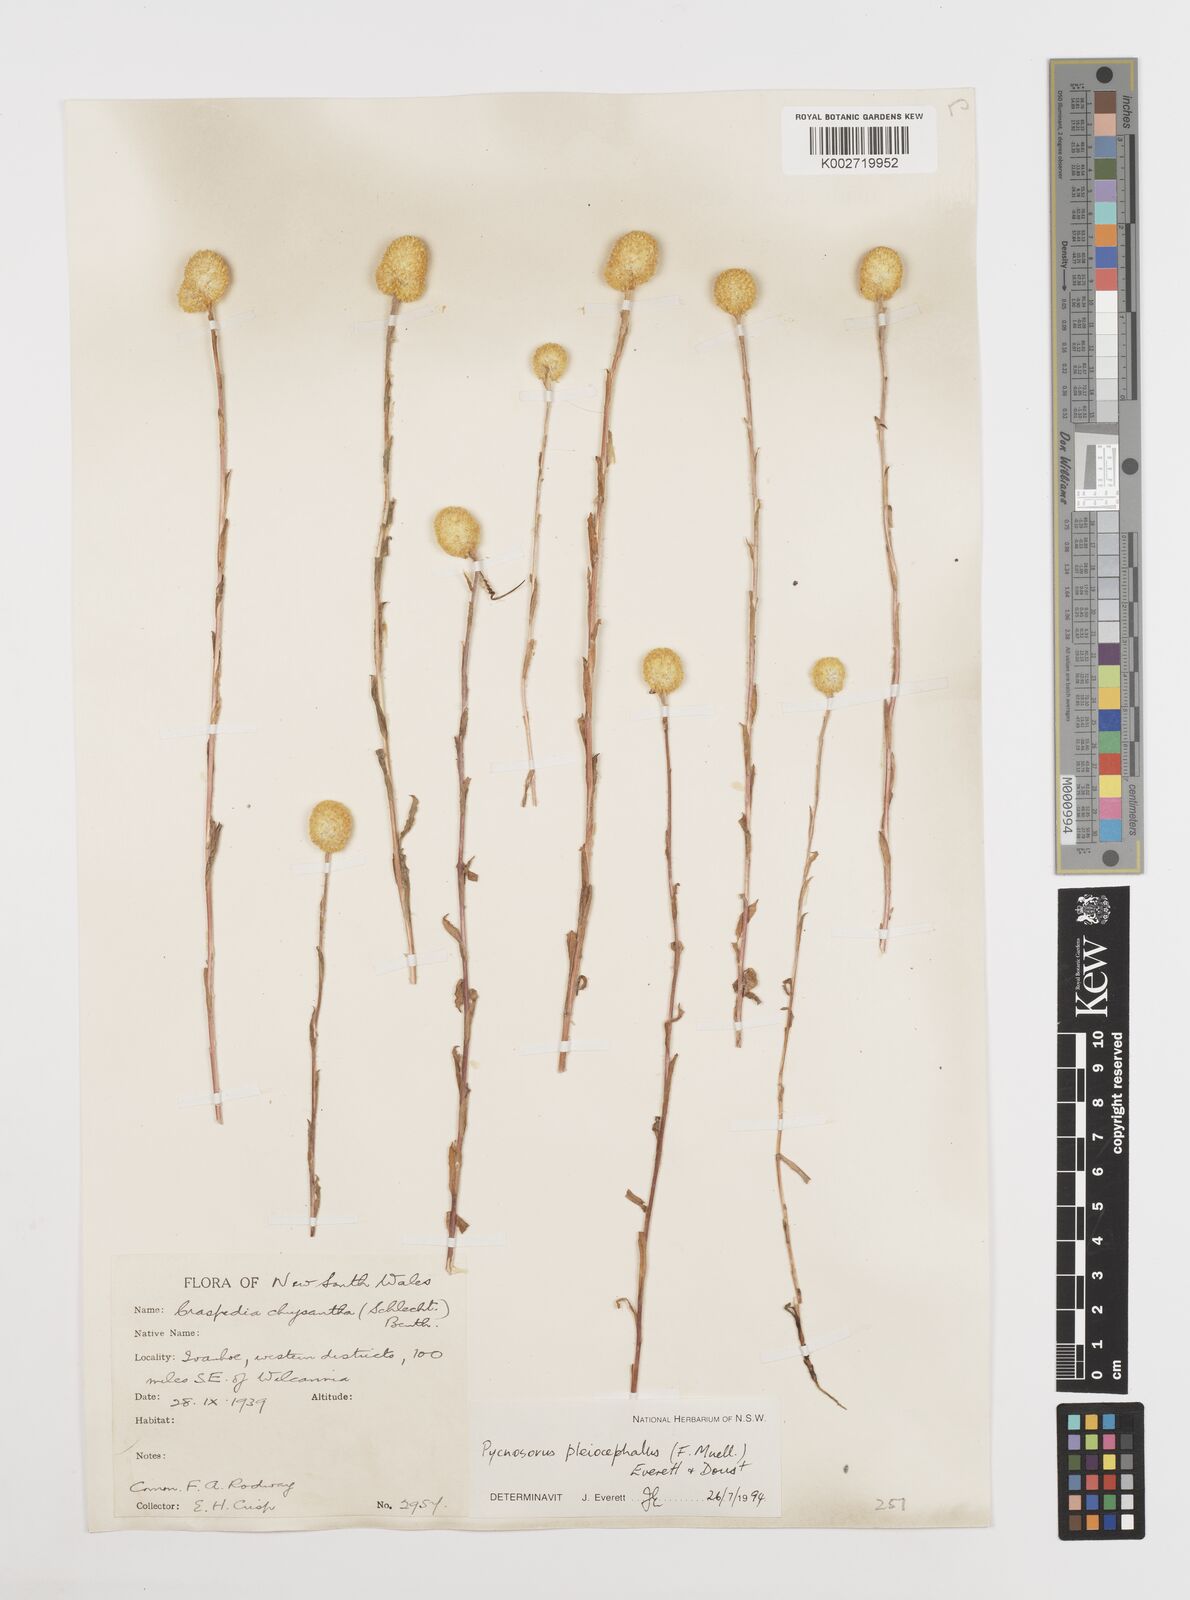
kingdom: Plantae
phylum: Tracheophyta
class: Magnoliopsida
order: Asterales
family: Asteraceae
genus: Pycnosorus
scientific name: Pycnosorus pleiocephalus
